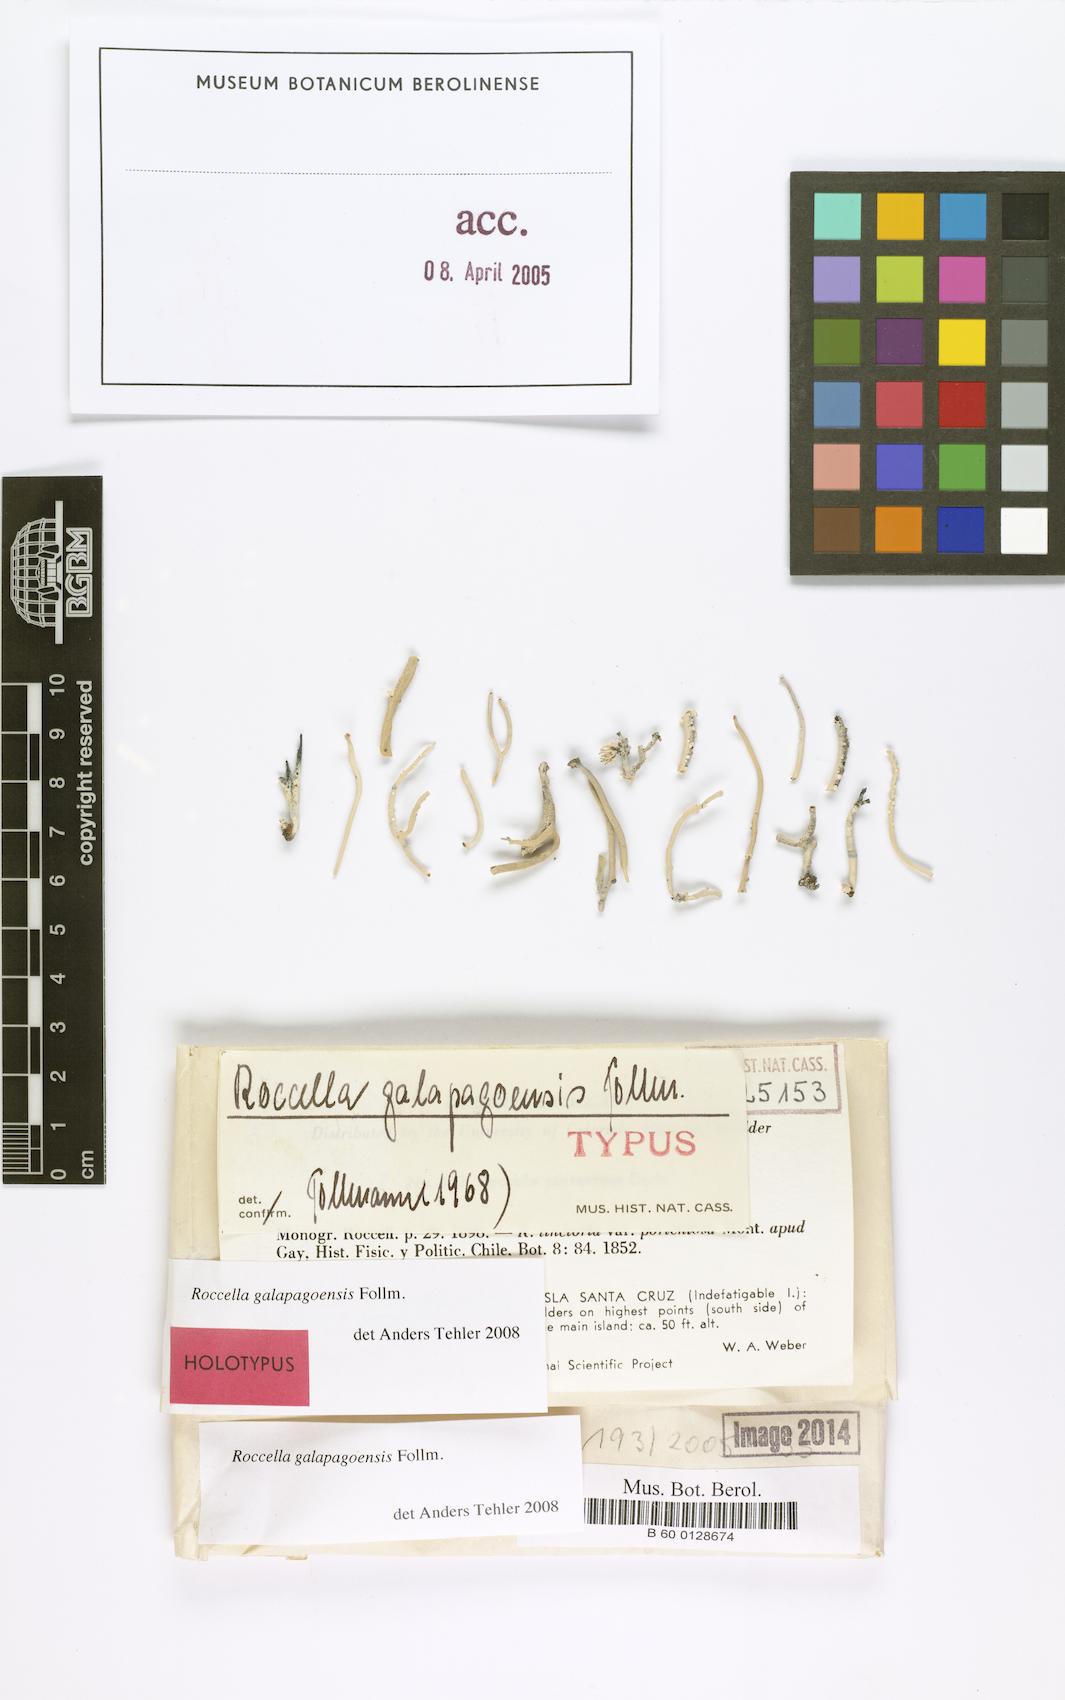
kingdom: Fungi
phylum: Ascomycota
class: Arthoniomycetes
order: Arthoniales
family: Roccellaceae
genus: Roccella
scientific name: Roccella galapagoensis
